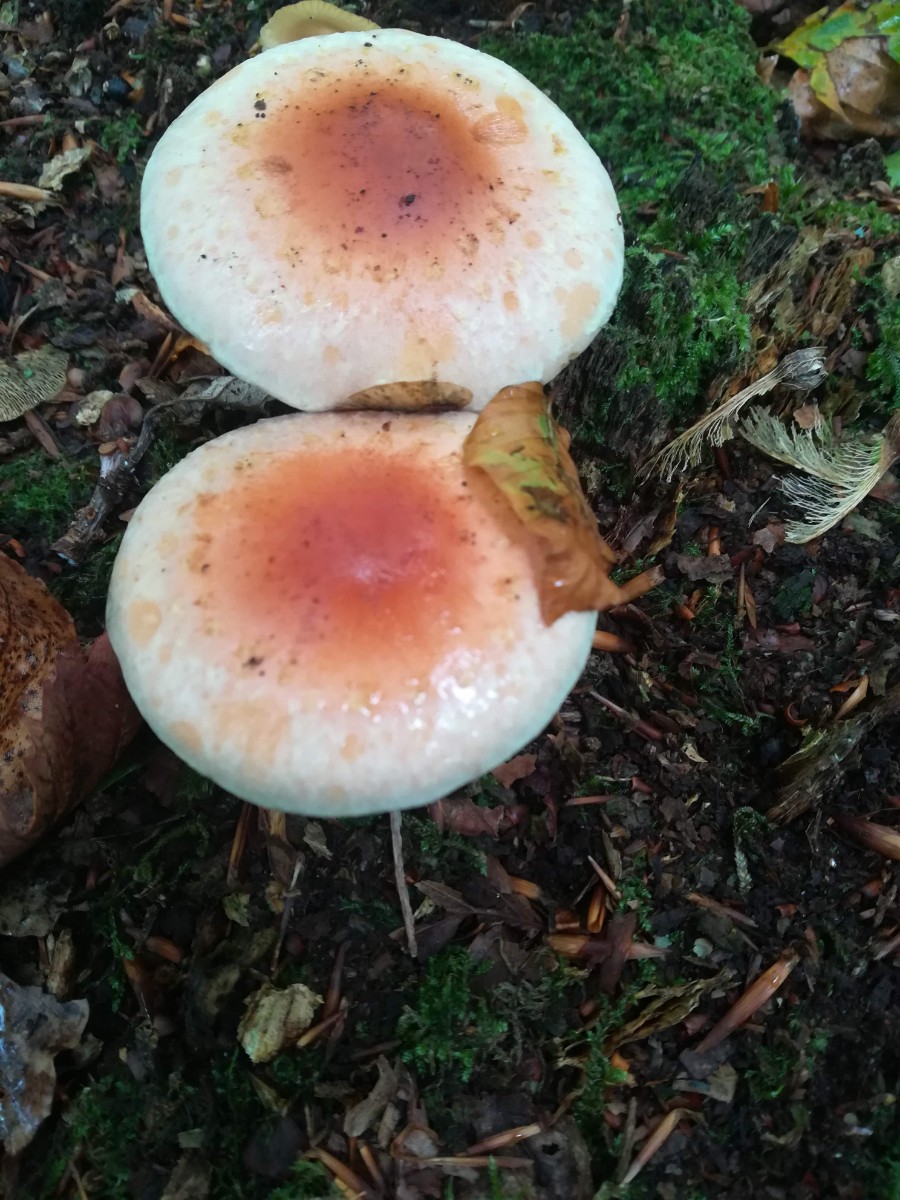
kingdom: Fungi
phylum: Basidiomycota
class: Agaricomycetes
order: Agaricales
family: Strophariaceae
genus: Hypholoma
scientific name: Hypholoma lateritium
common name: teglrød svovlhat
